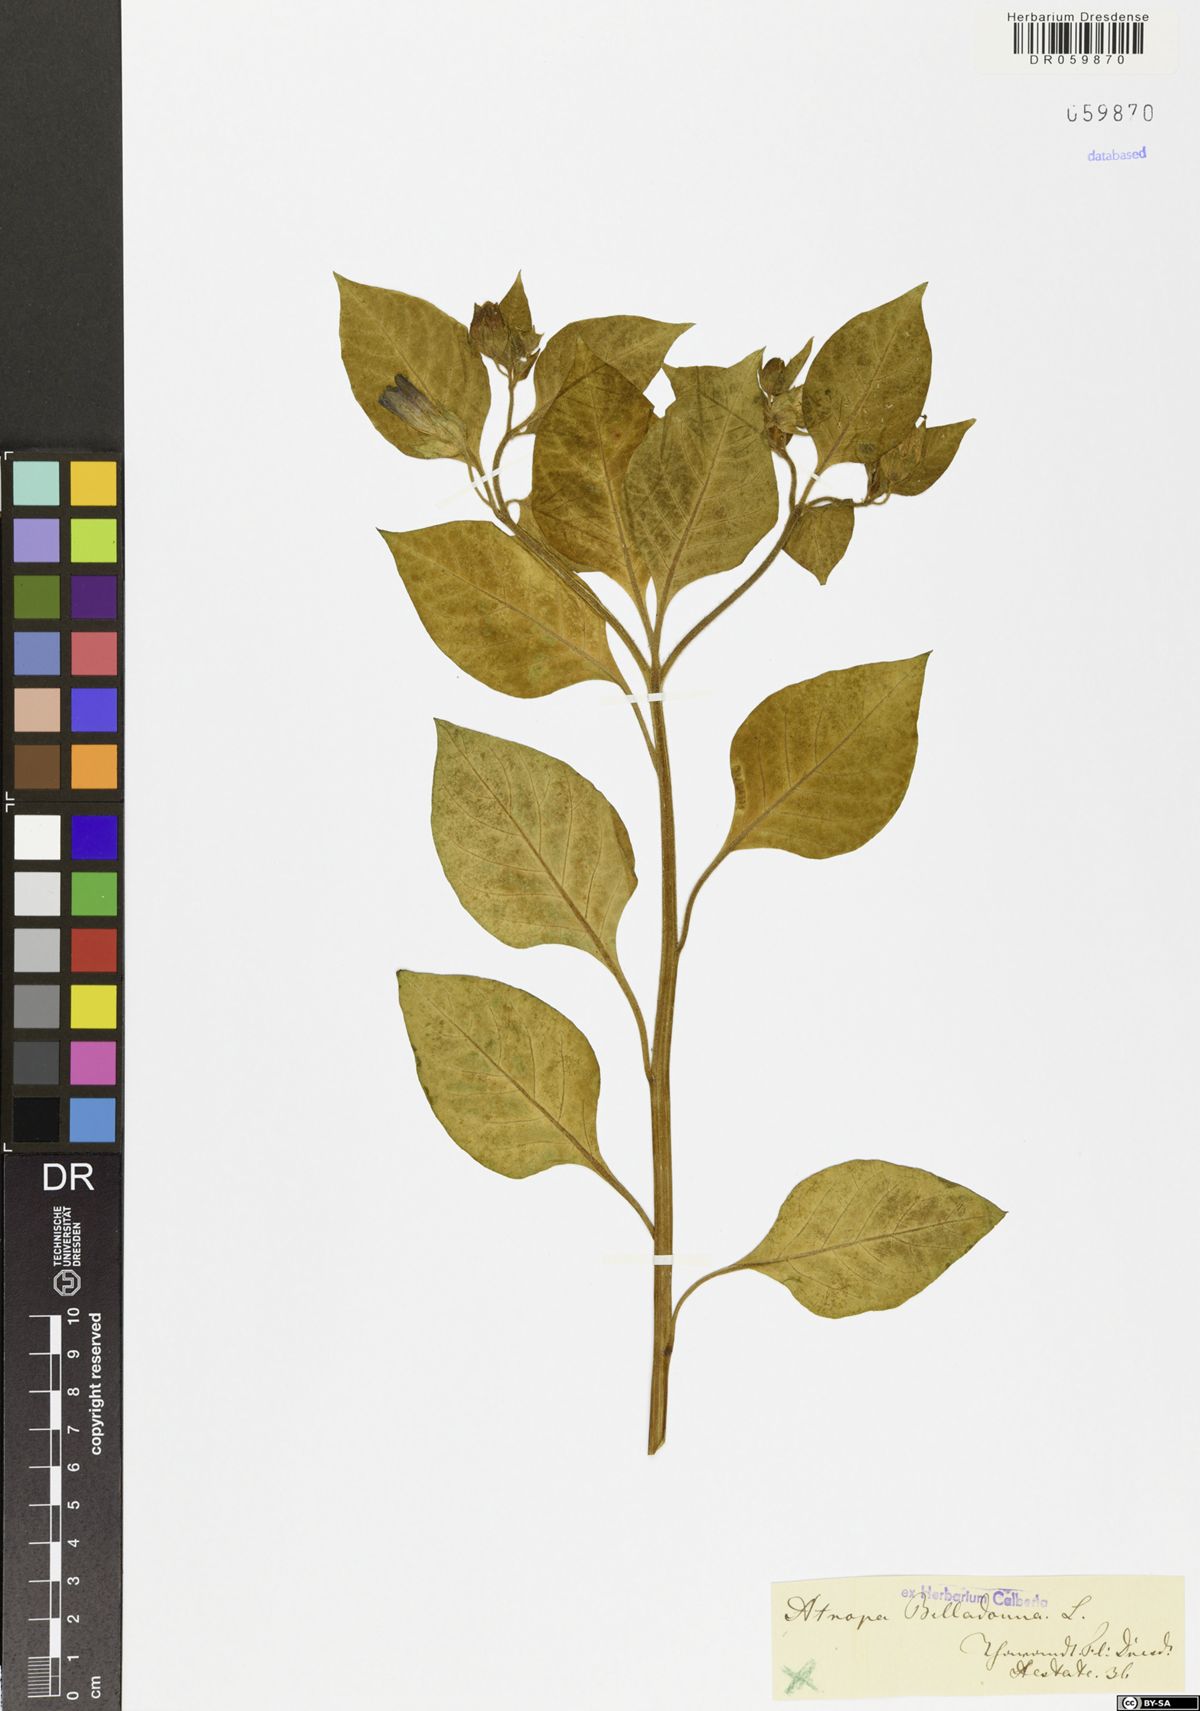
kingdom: Plantae
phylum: Tracheophyta
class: Magnoliopsida
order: Solanales
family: Solanaceae
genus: Atropa
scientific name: Atropa belladonna
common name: Deadly nightshade
